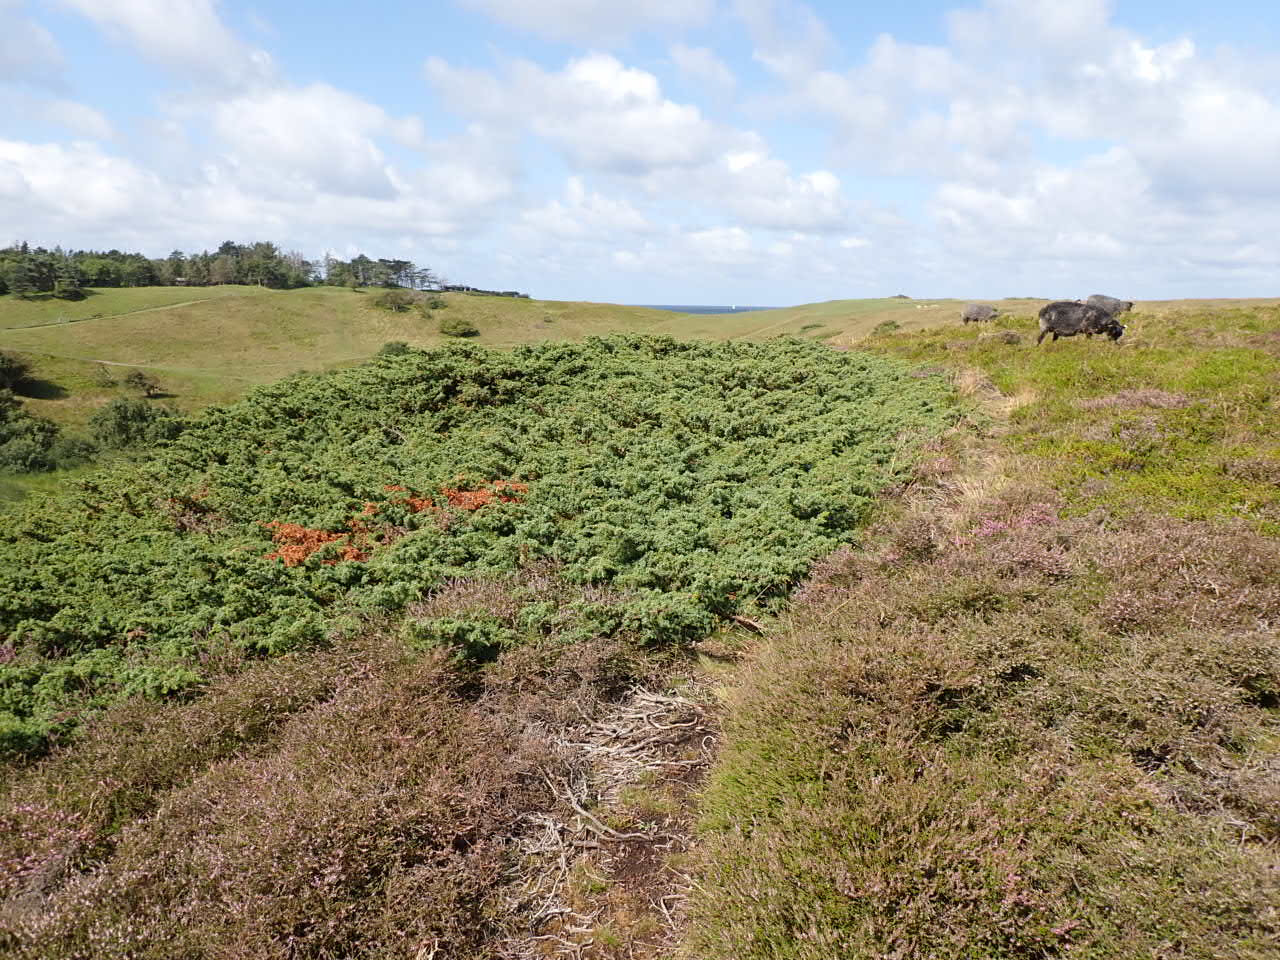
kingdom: Plantae
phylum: Tracheophyta
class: Pinopsida
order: Pinales
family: Cupressaceae
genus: Juniperus
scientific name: Juniperus communis
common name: Almindelig ene
